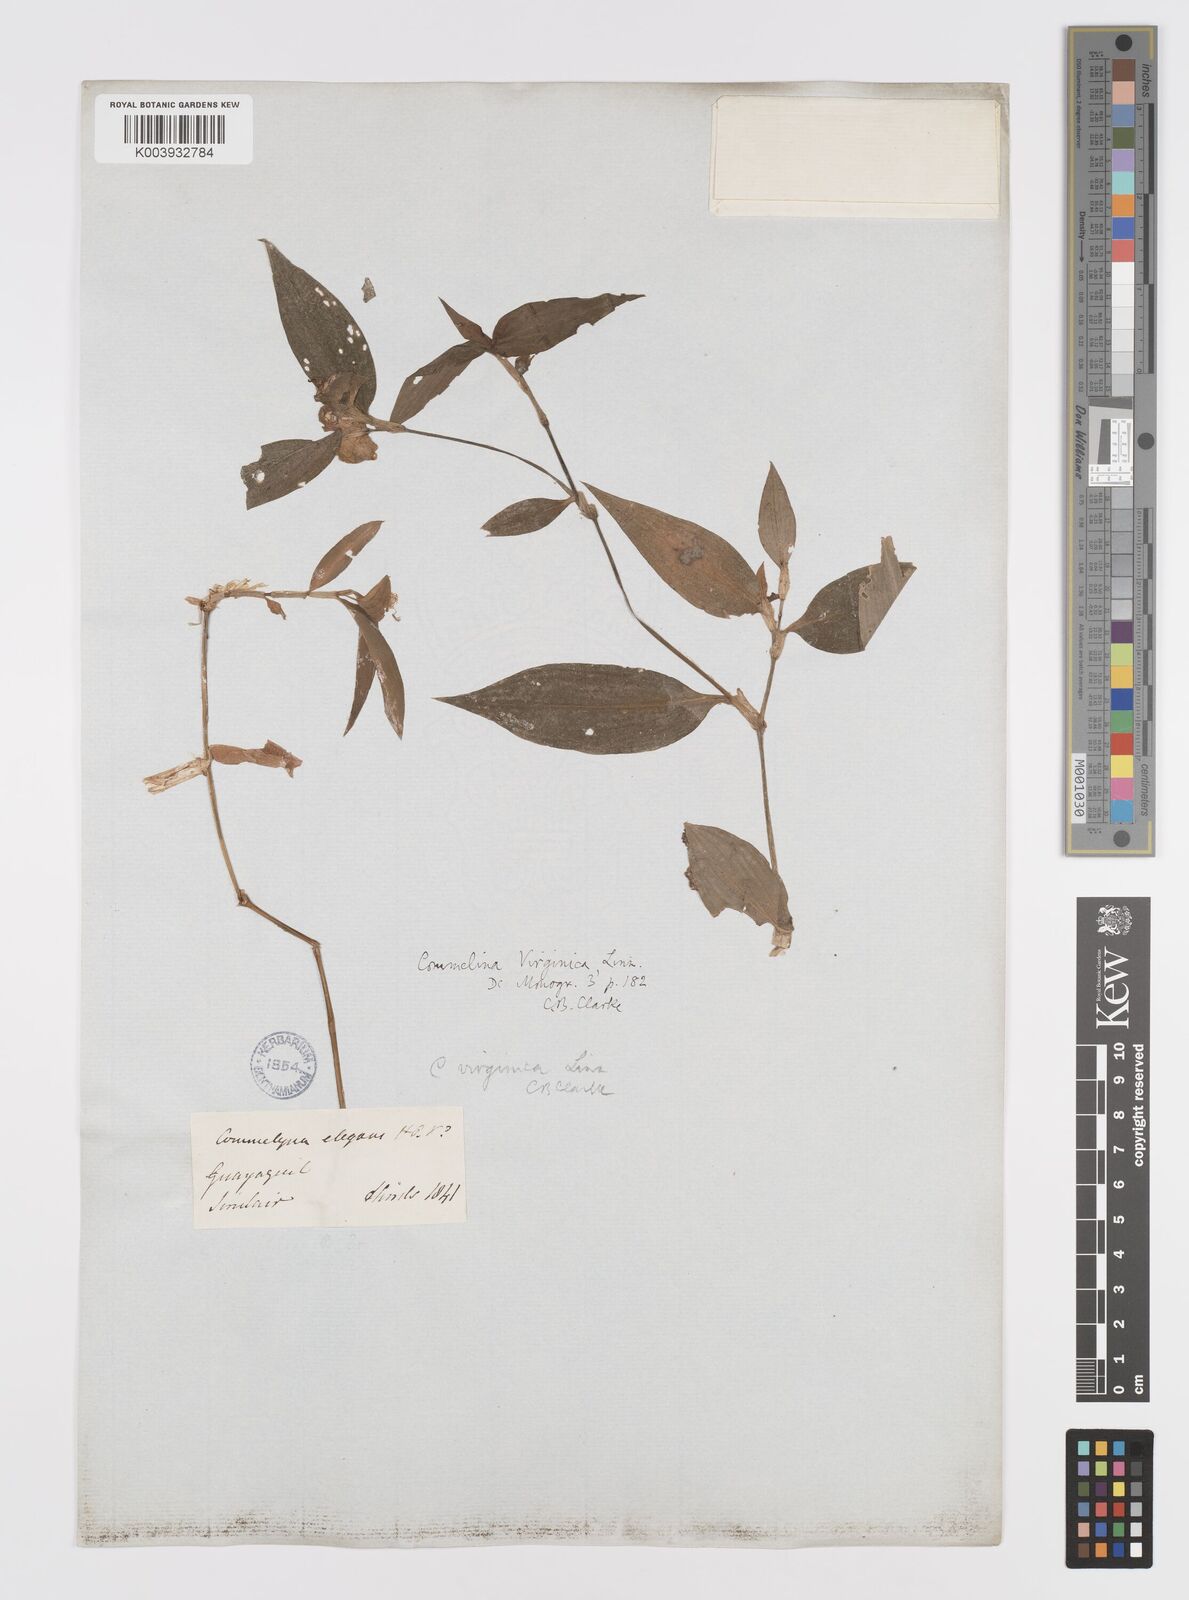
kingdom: Plantae
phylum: Tracheophyta
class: Liliopsida
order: Commelinales
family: Commelinaceae
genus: Commelina
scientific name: Commelina virginica
